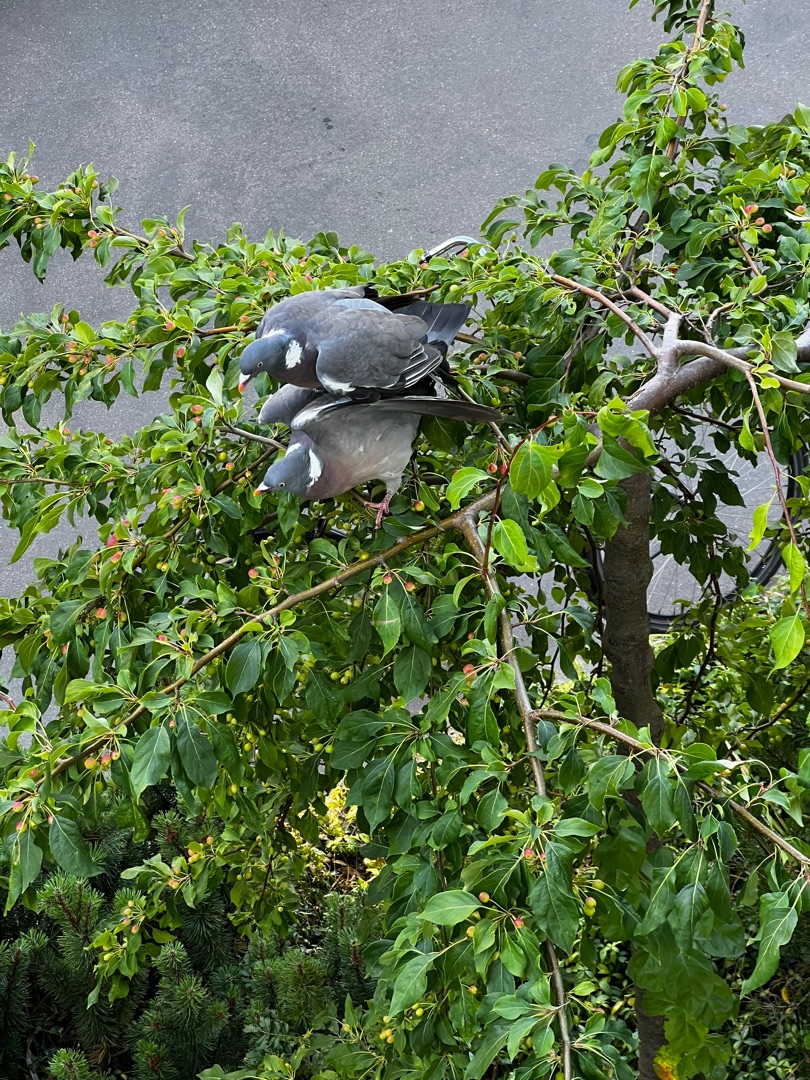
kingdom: Animalia
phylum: Chordata
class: Aves
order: Columbiformes
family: Columbidae
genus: Columba
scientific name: Columba palumbus
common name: Ringdue
